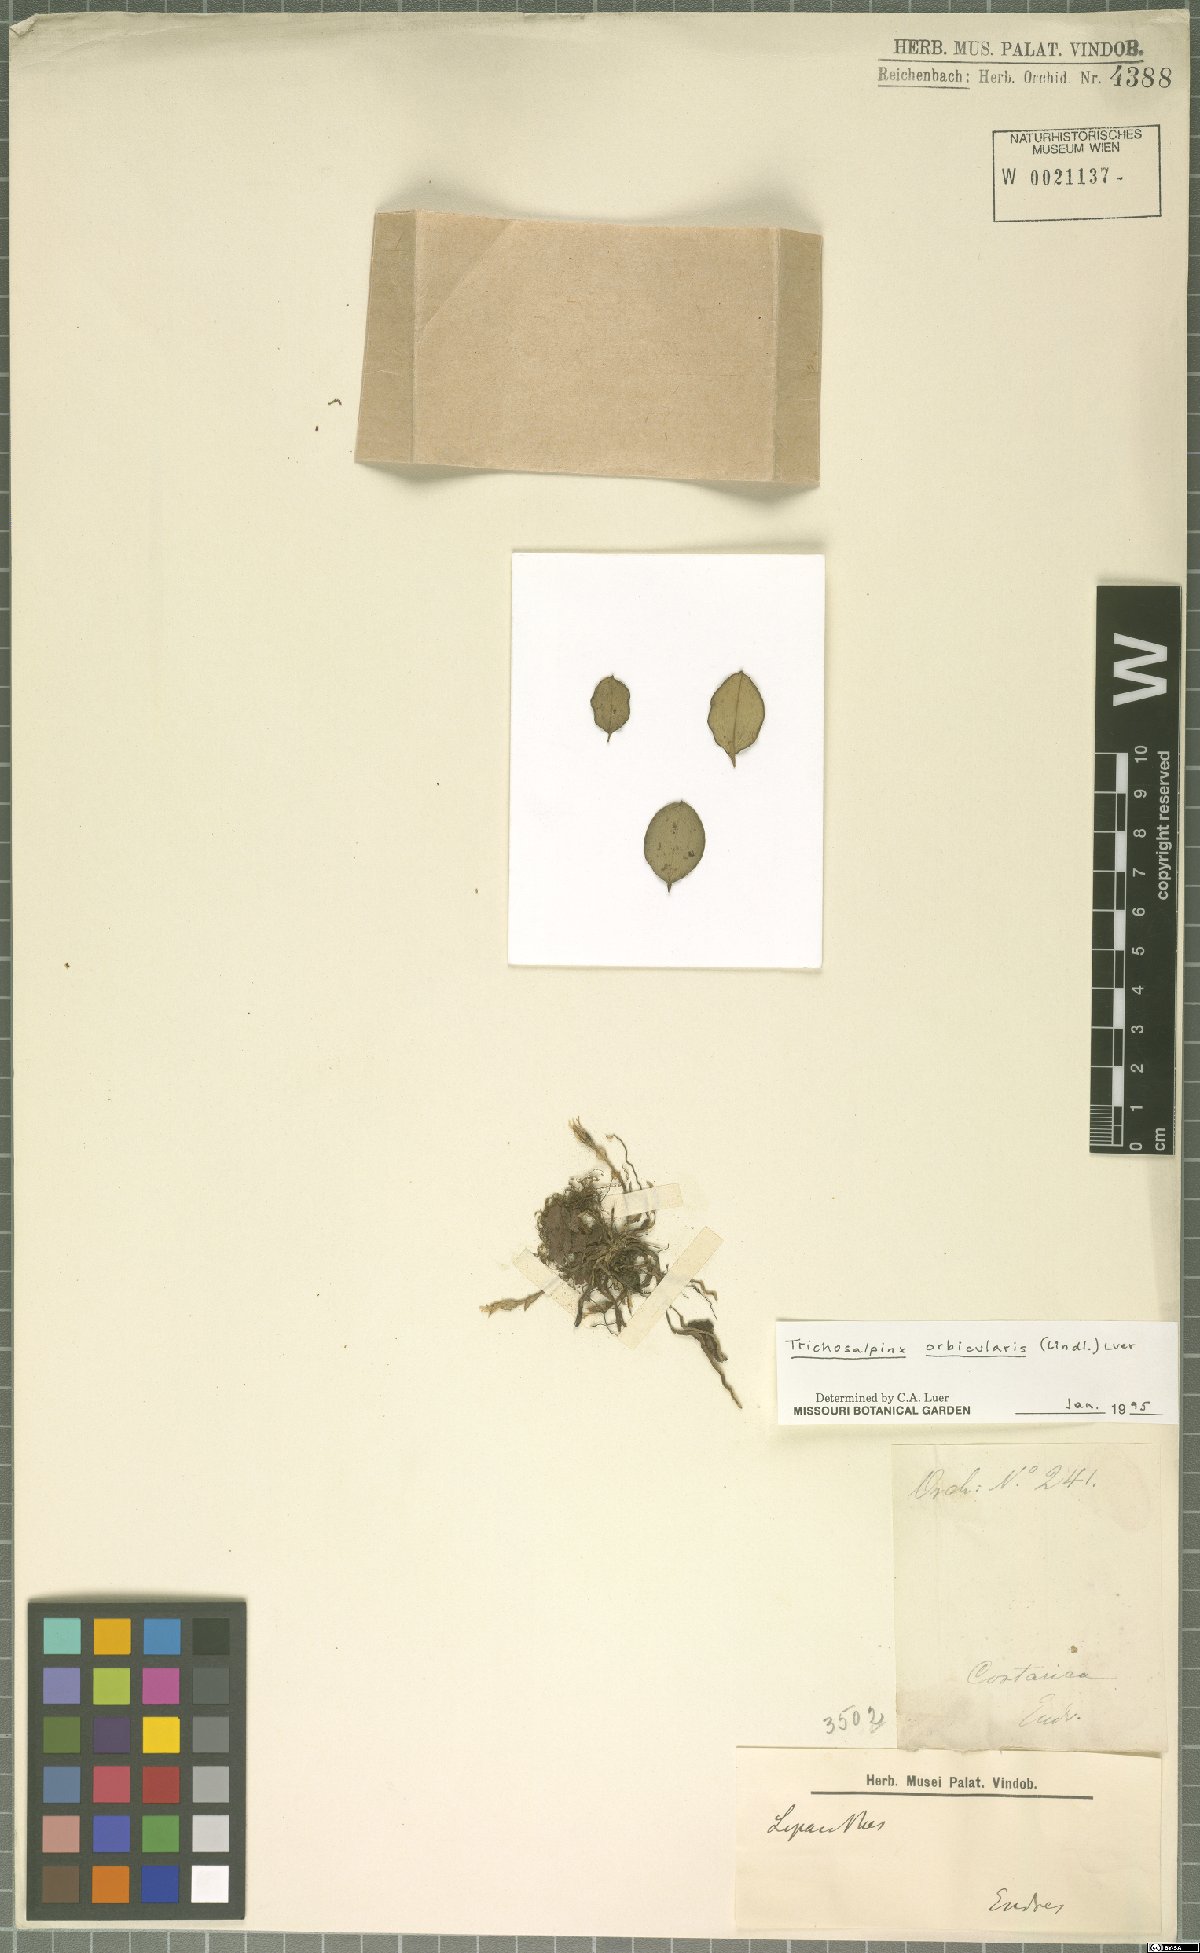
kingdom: Plantae
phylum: Tracheophyta
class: Liliopsida
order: Asparagales
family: Orchidaceae
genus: Trichosalpinx
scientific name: Trichosalpinx orbicularis
